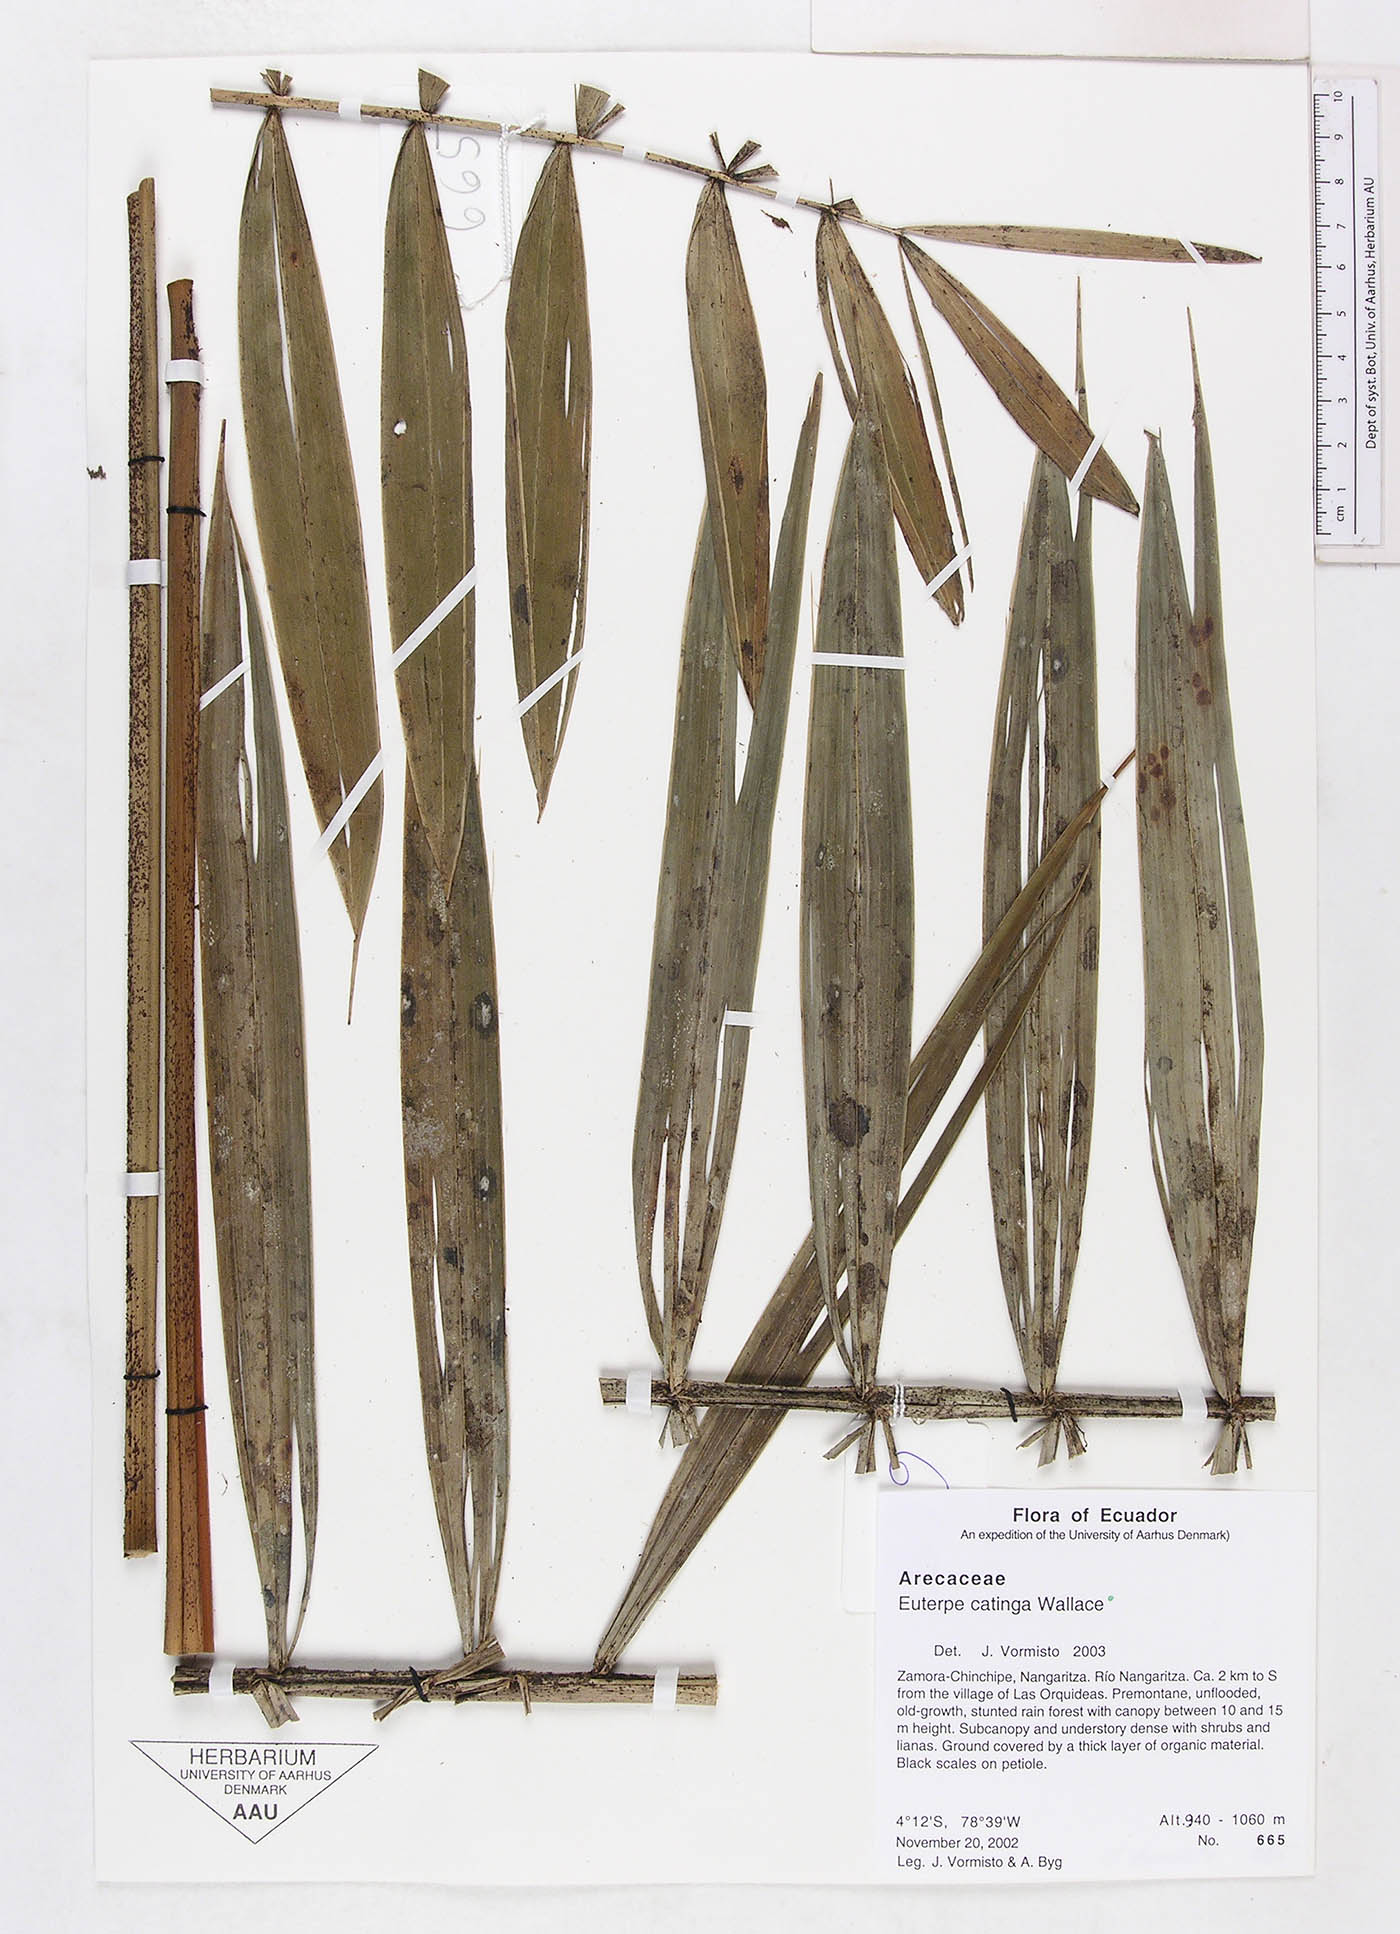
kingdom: Plantae
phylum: Tracheophyta
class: Liliopsida
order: Arecales
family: Arecaceae
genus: Euterpe
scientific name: Euterpe catinga
